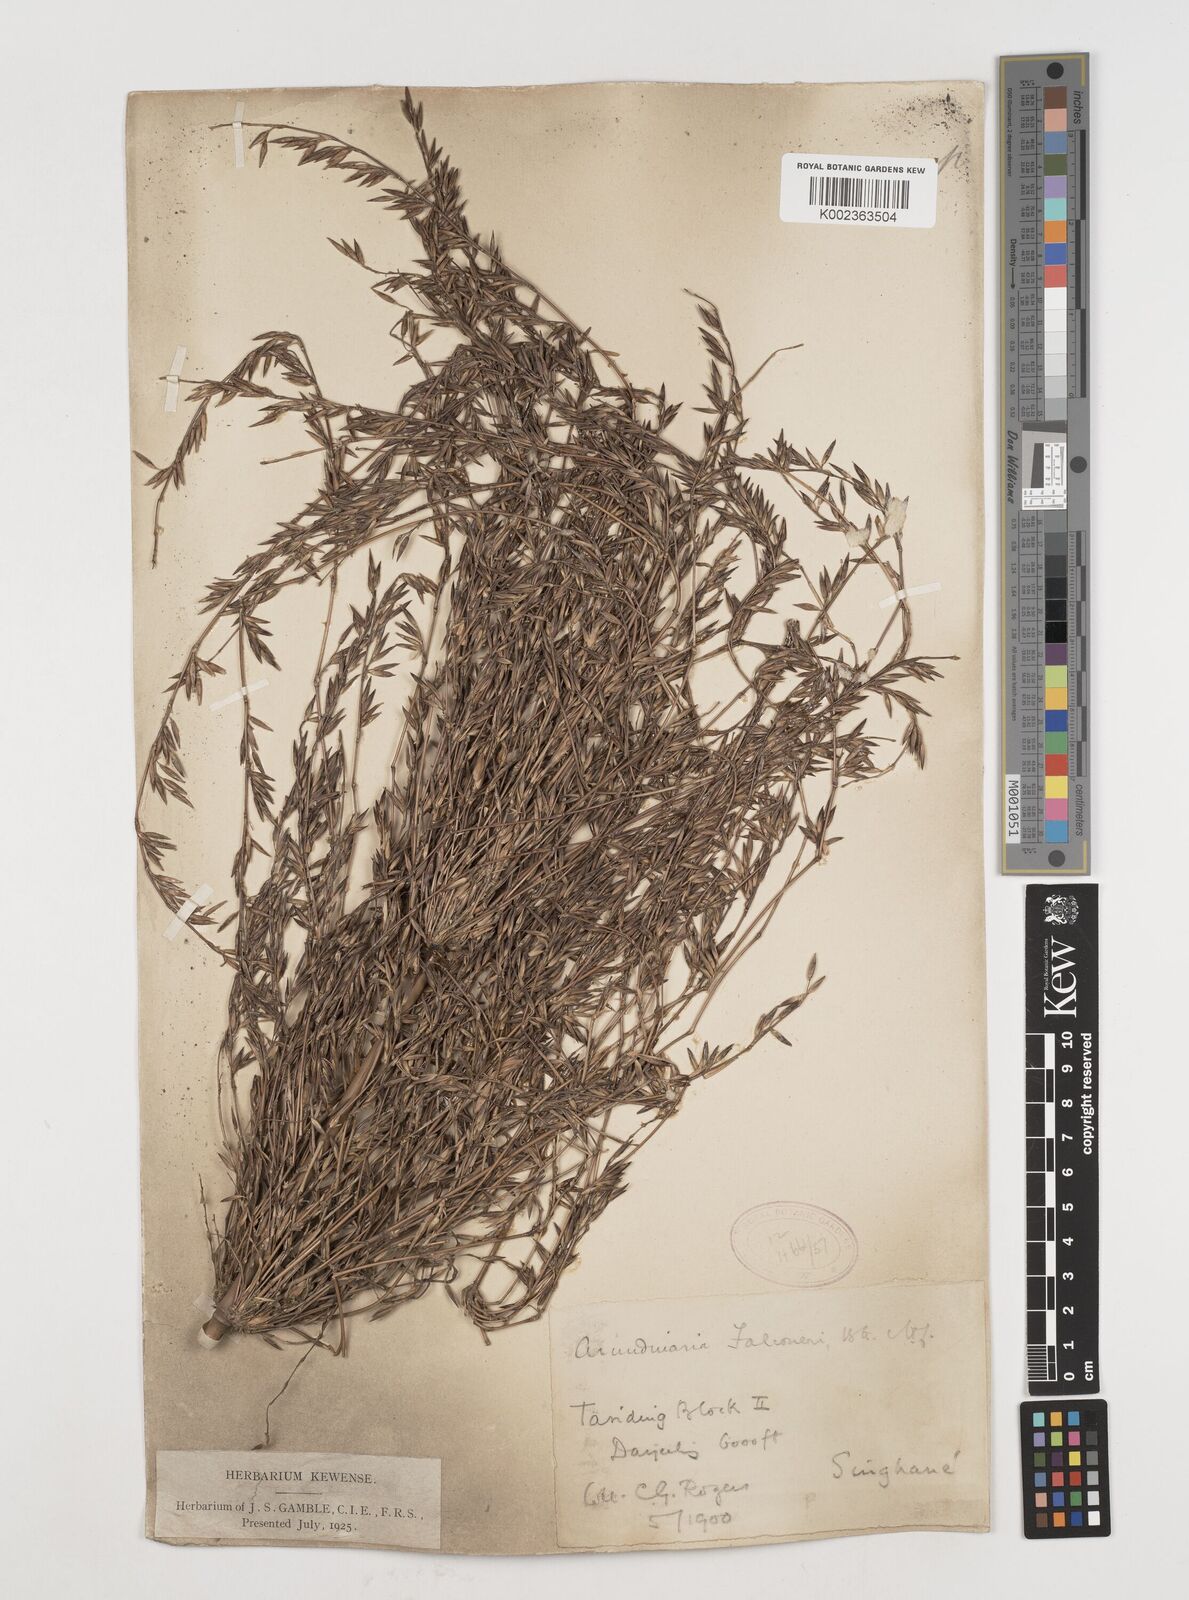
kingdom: Plantae
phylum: Tracheophyta
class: Liliopsida
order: Poales
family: Poaceae
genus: Himalayacalamus
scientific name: Himalayacalamus falconeri
